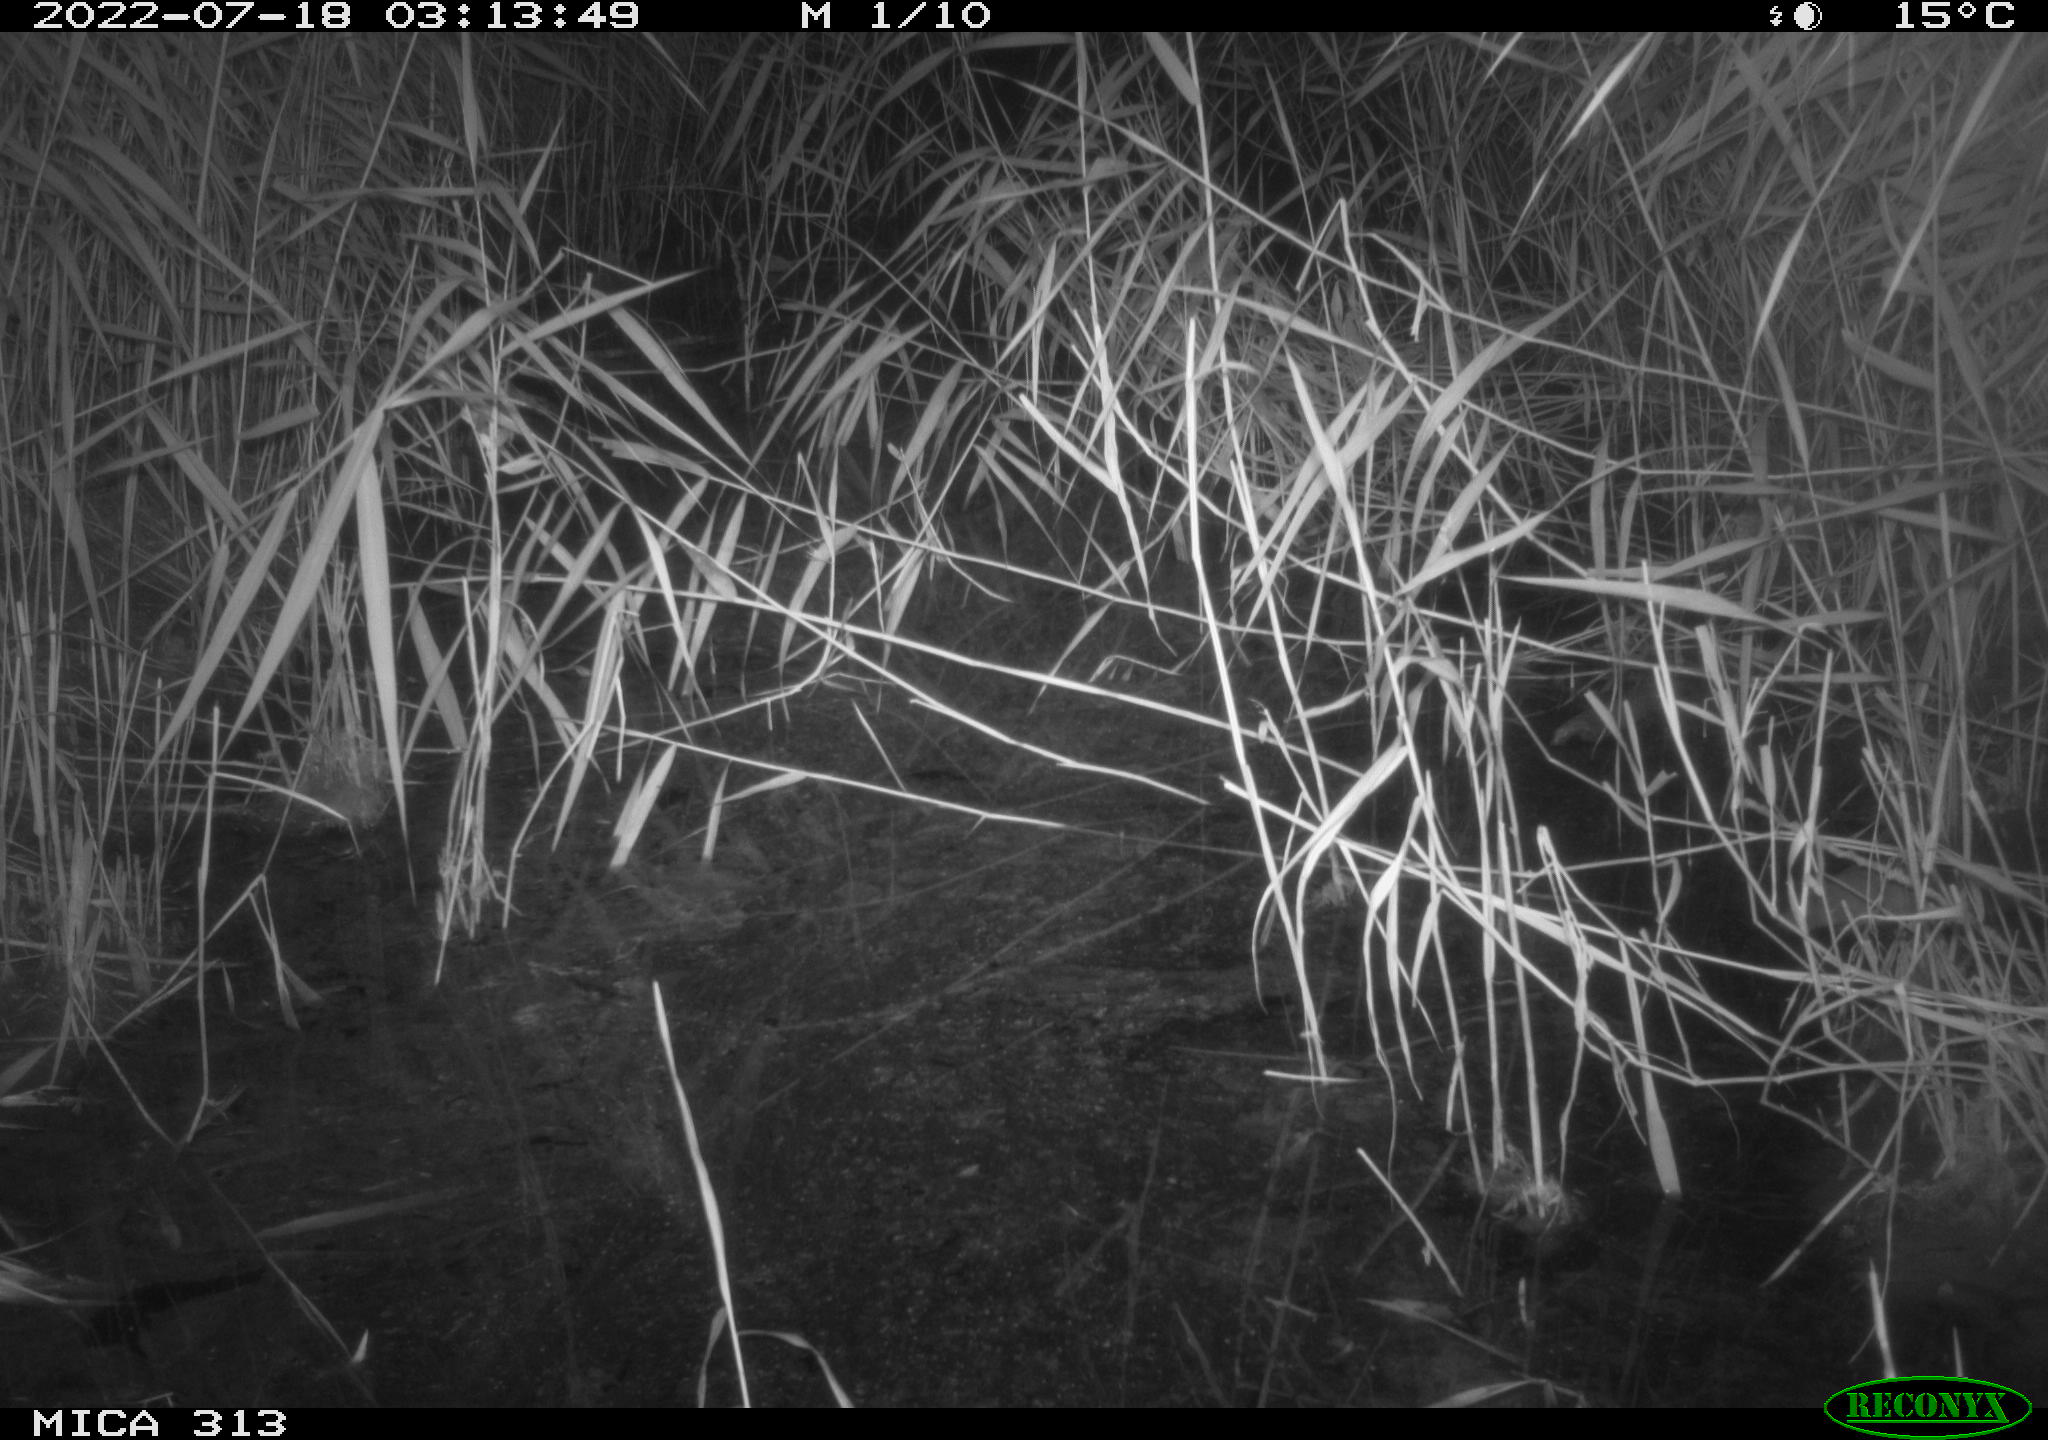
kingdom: Animalia
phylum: Chordata
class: Mammalia
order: Rodentia
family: Muridae
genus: Rattus
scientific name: Rattus norvegicus
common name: Brown rat
